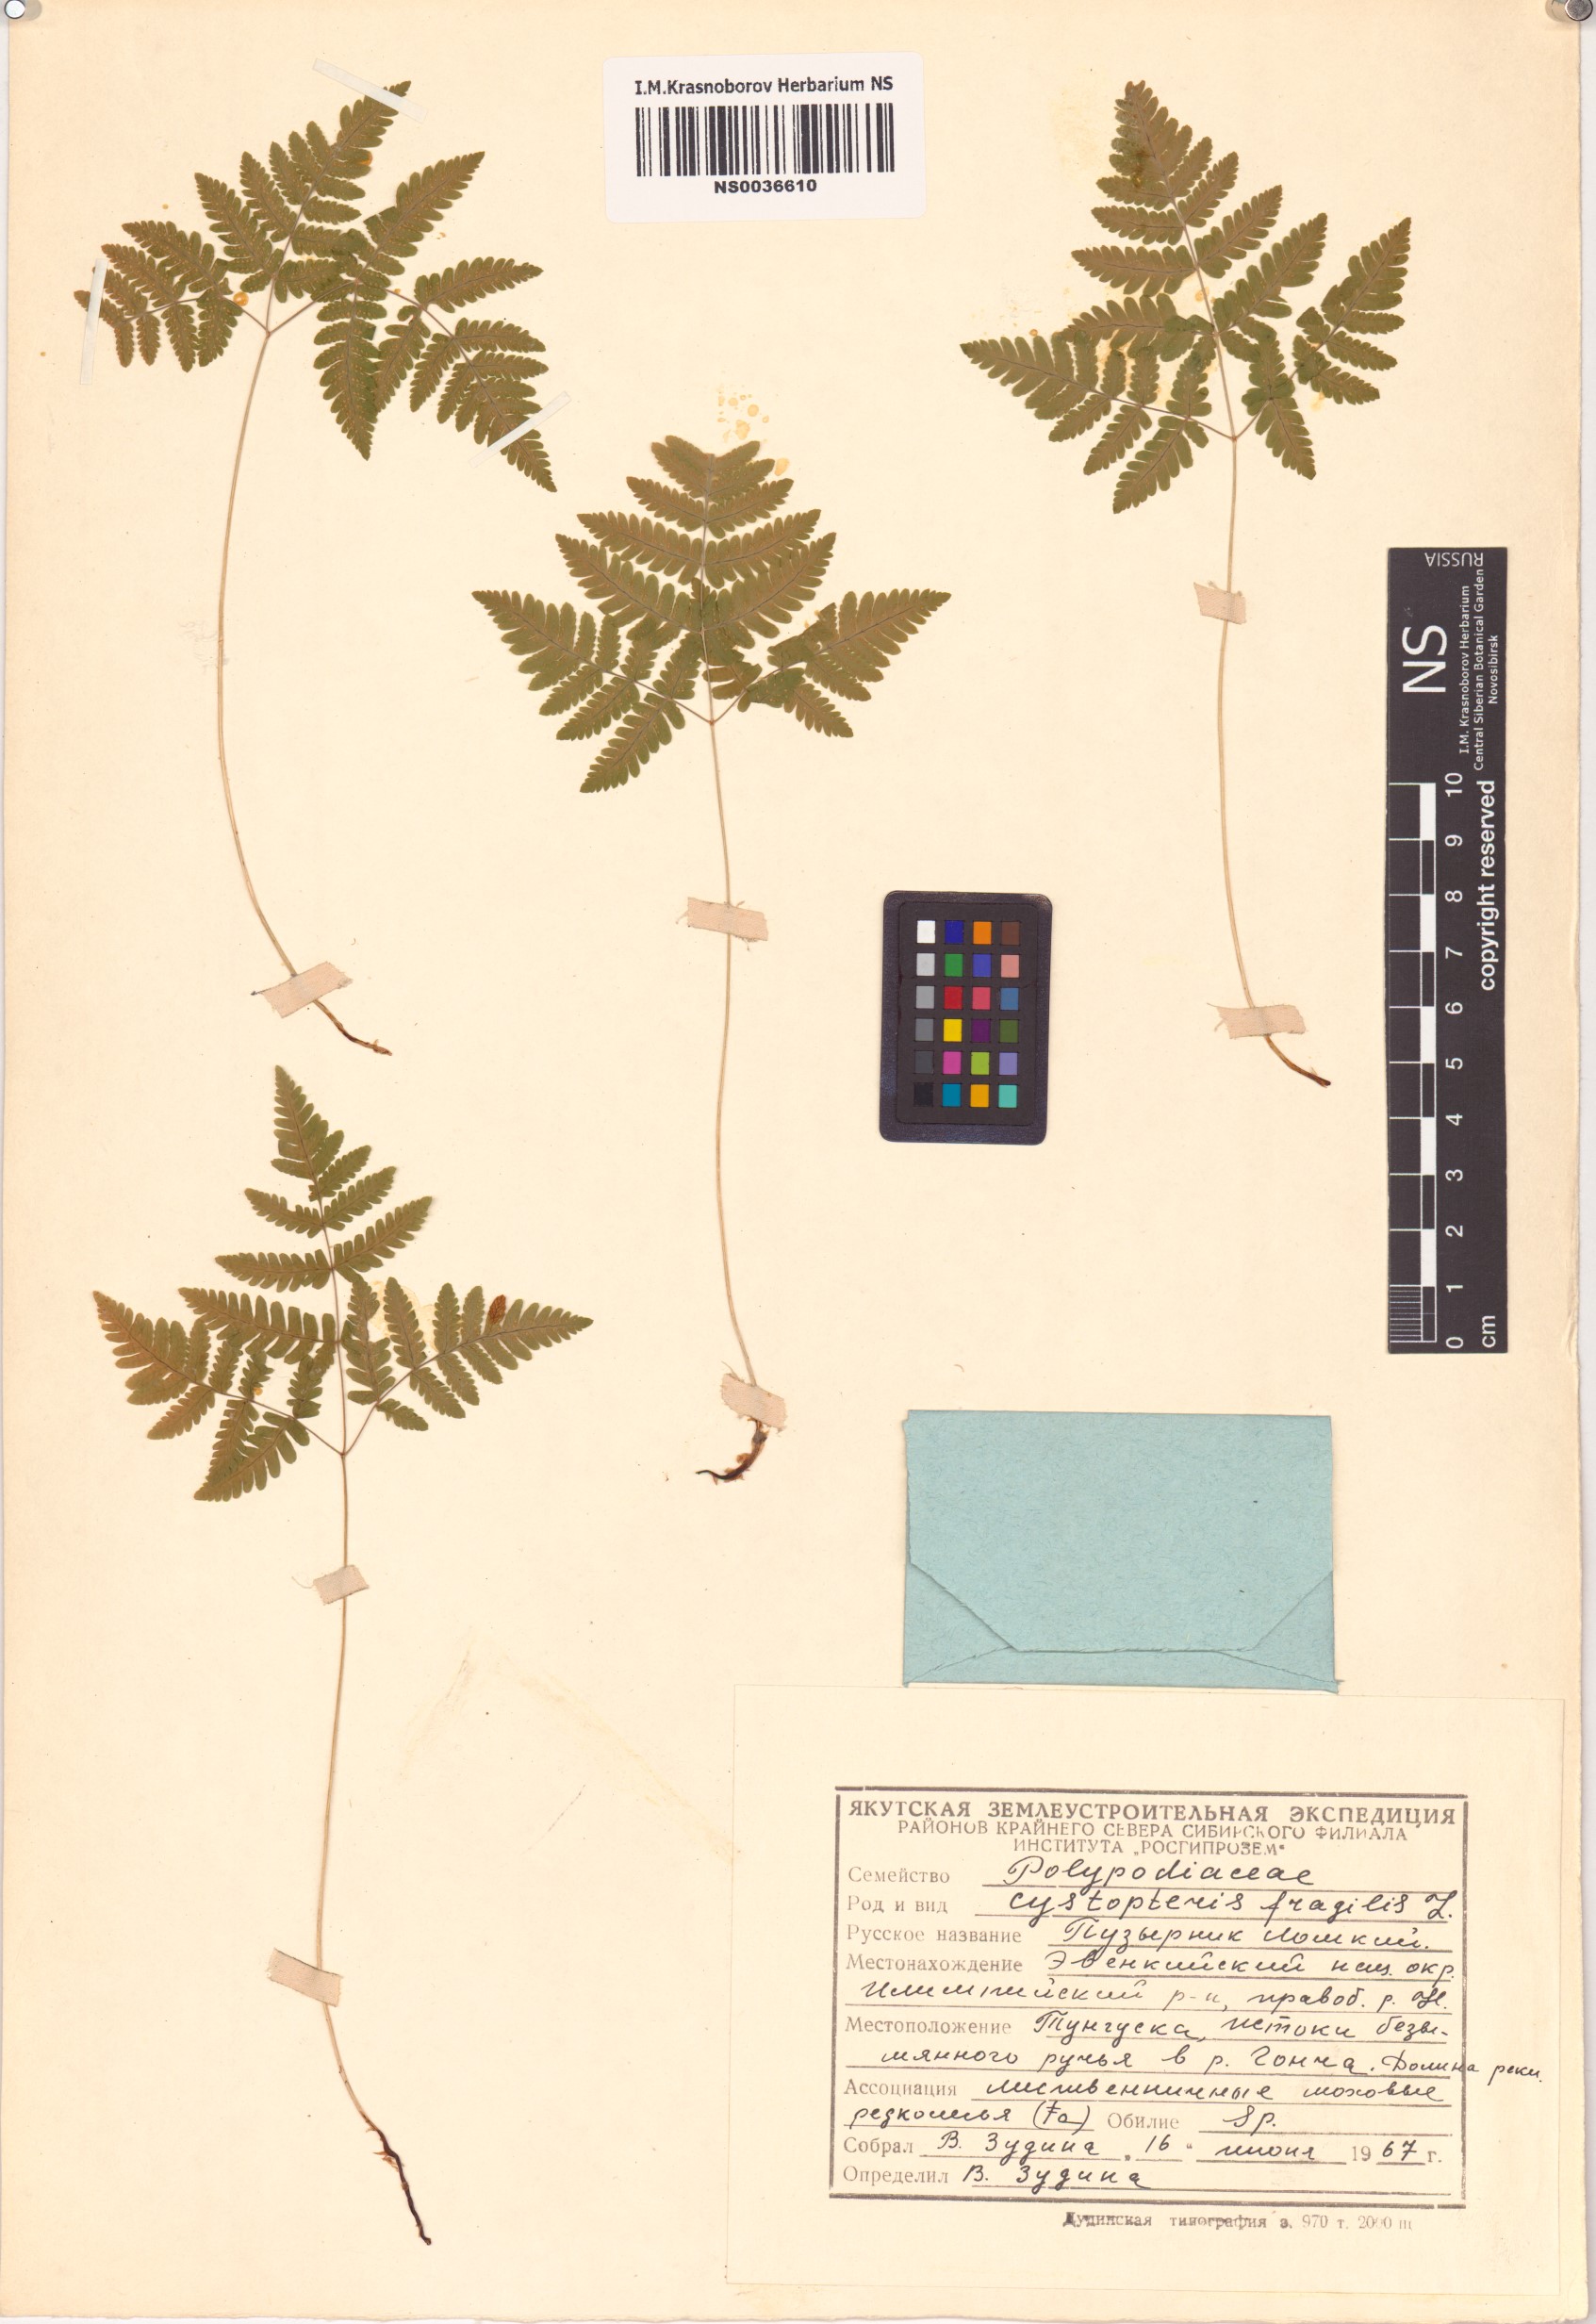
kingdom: Plantae
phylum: Tracheophyta
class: Polypodiopsida
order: Polypodiales
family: Cystopteridaceae
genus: Cystopteris
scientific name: Cystopteris fragilis
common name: Brittle bladder fern
